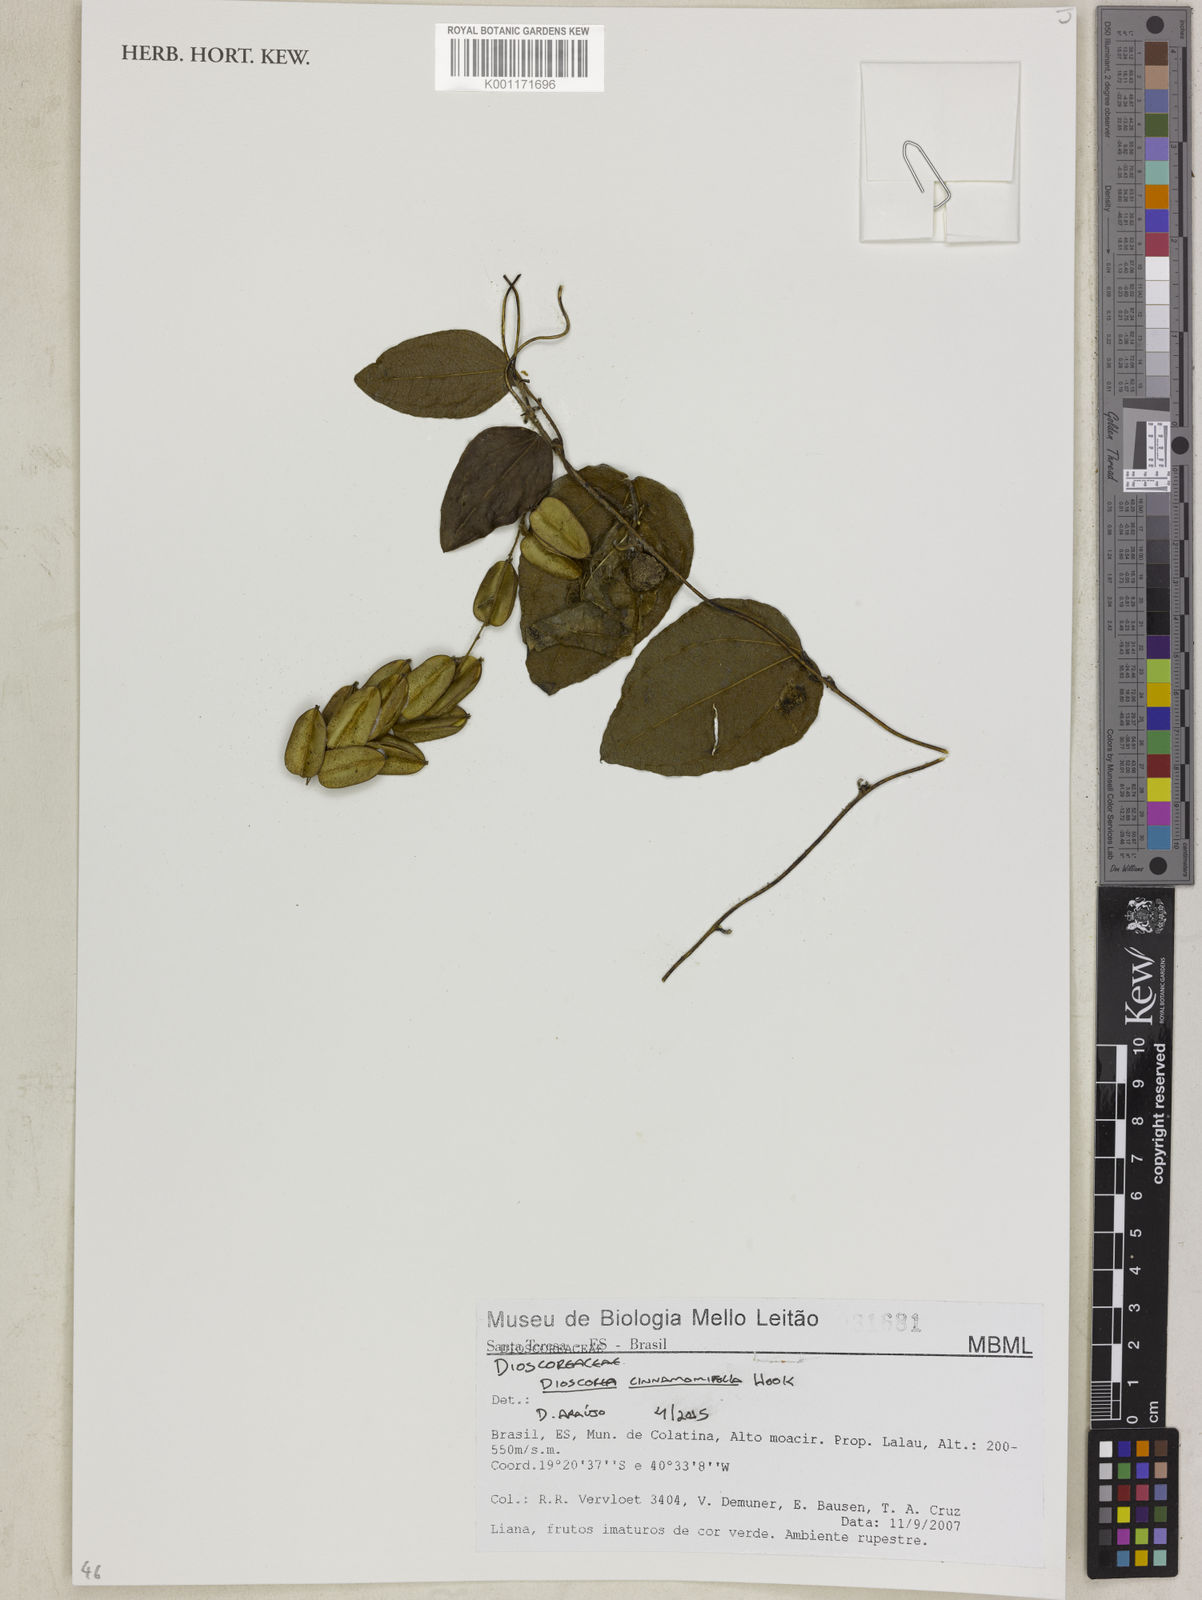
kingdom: Plantae
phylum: Tracheophyta
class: Liliopsida
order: Dioscoreales
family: Dioscoreaceae
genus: Dioscorea
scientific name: Dioscorea cinnamomifolia
